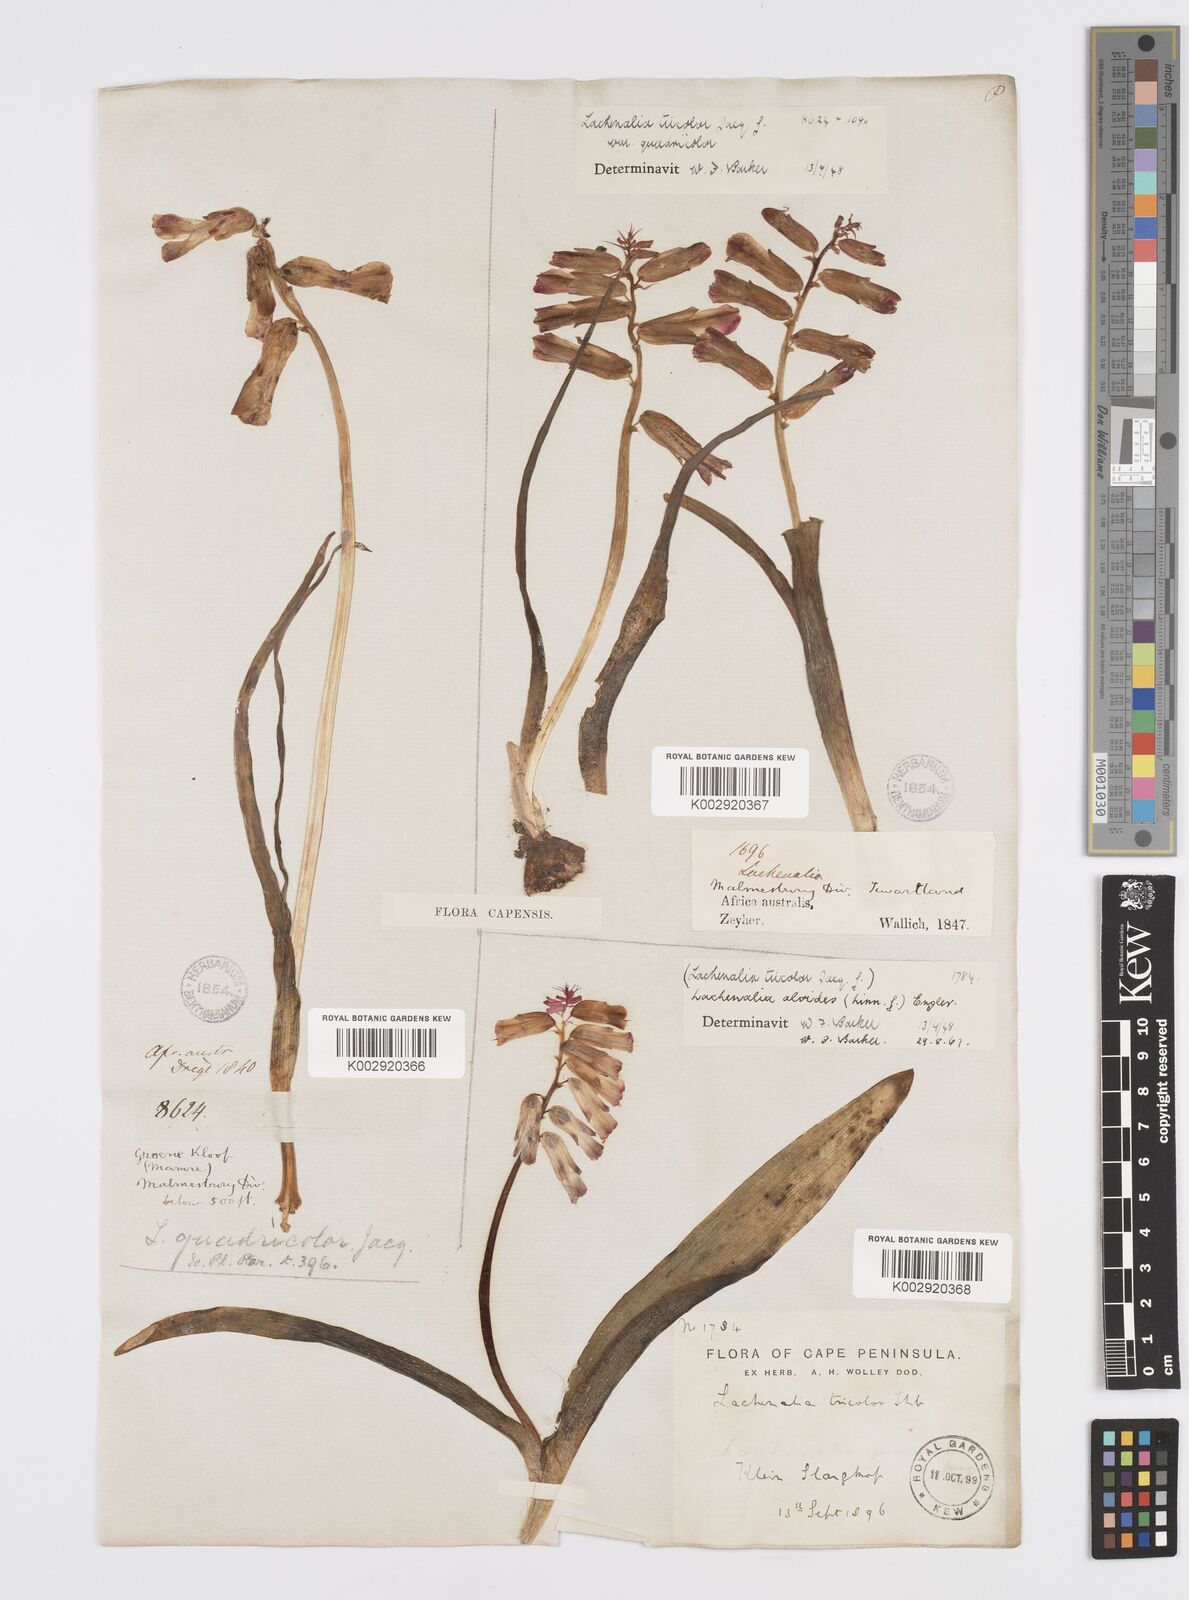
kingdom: Plantae
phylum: Tracheophyta
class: Liliopsida
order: Asparagales
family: Asparagaceae
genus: Lachenalia
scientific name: Lachenalia aloides
